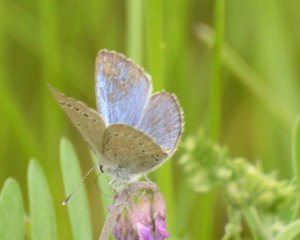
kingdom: Animalia
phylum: Arthropoda
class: Insecta
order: Lepidoptera
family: Lycaenidae
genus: Glaucopsyche
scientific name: Glaucopsyche lygdamus
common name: Silvery Blue
